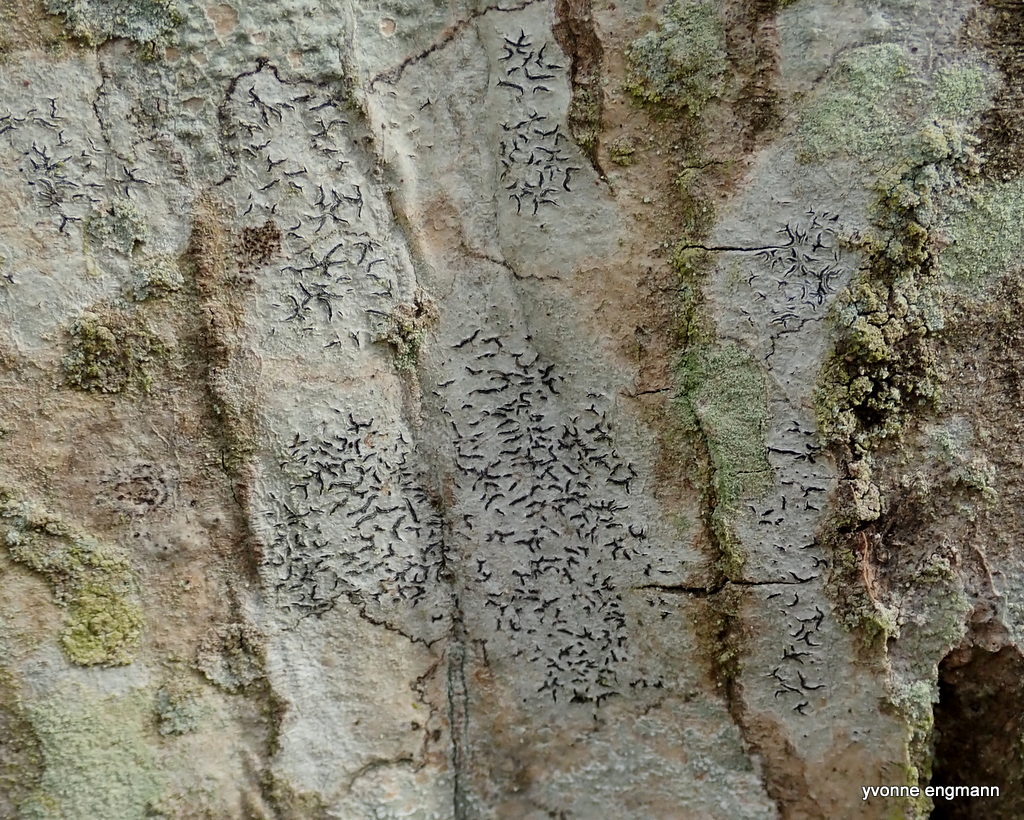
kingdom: Fungi
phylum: Ascomycota
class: Lecanoromycetes
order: Ostropales
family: Graphidaceae
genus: Graphis
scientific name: Graphis scripta
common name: almindelig skriftlav
